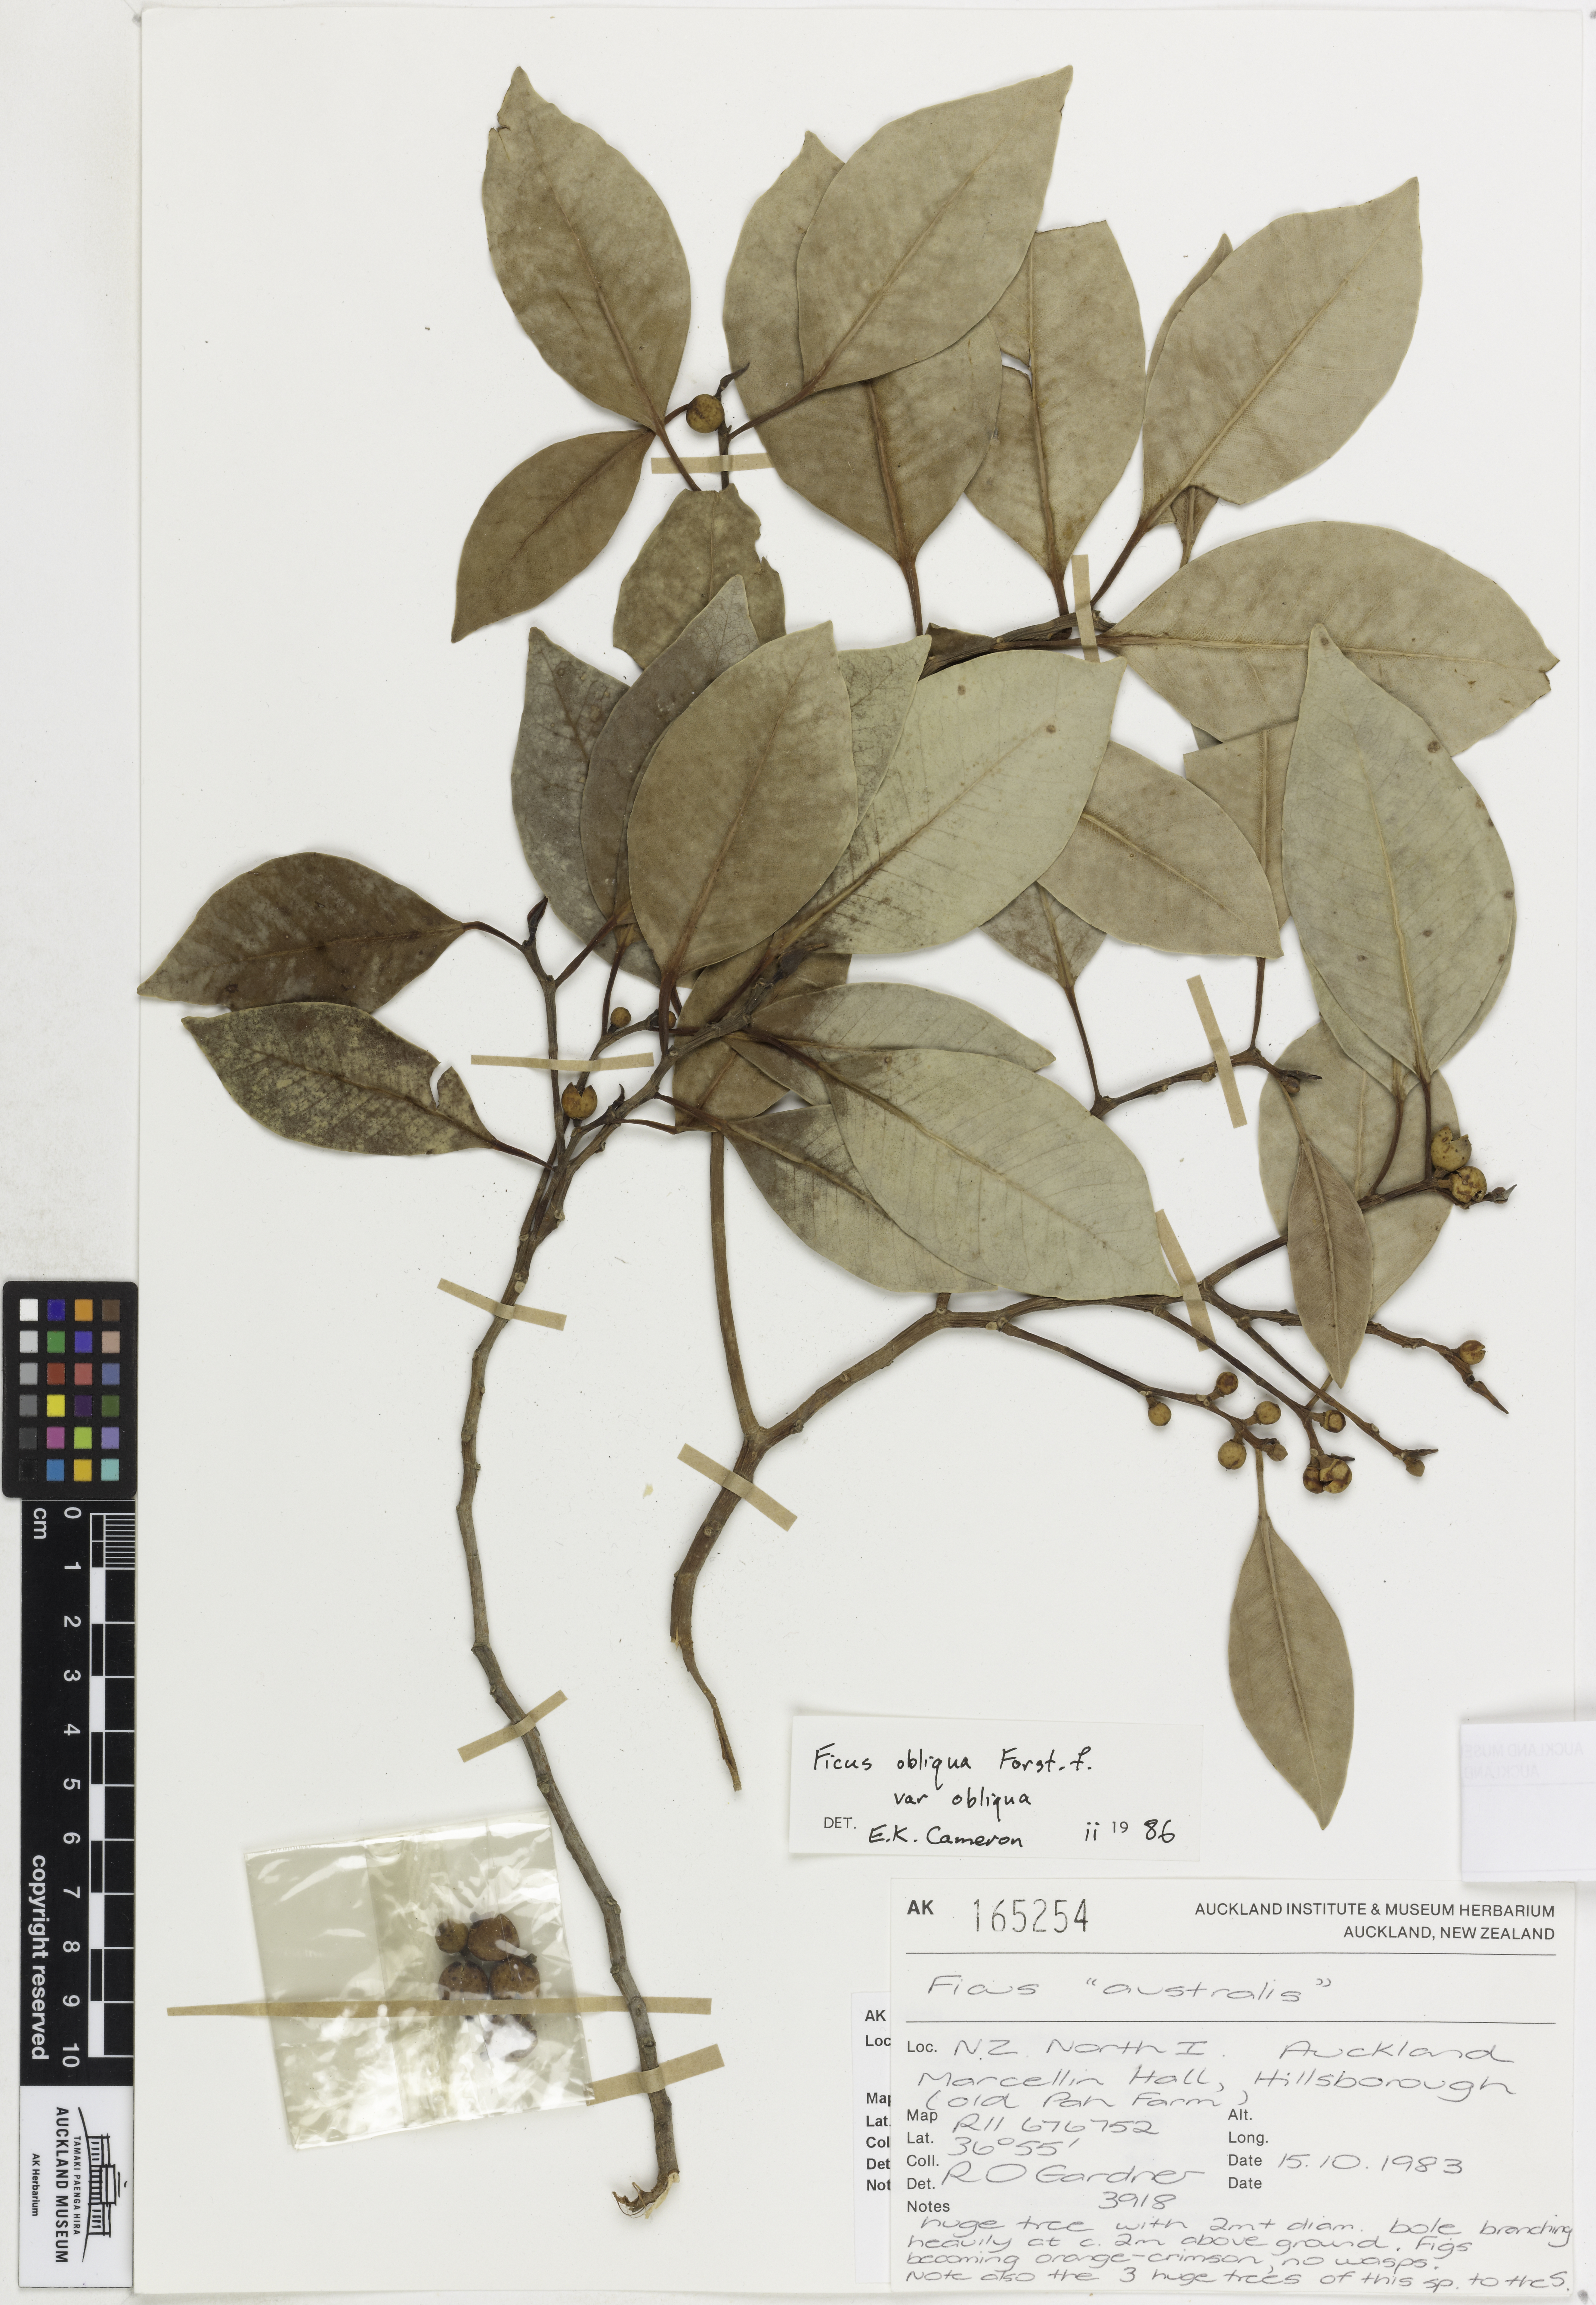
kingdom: Plantae
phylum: Tracheophyta
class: Magnoliopsida
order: Rosales
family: Moraceae
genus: Ficus
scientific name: Ficus obliqua
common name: Small-leaf fig
